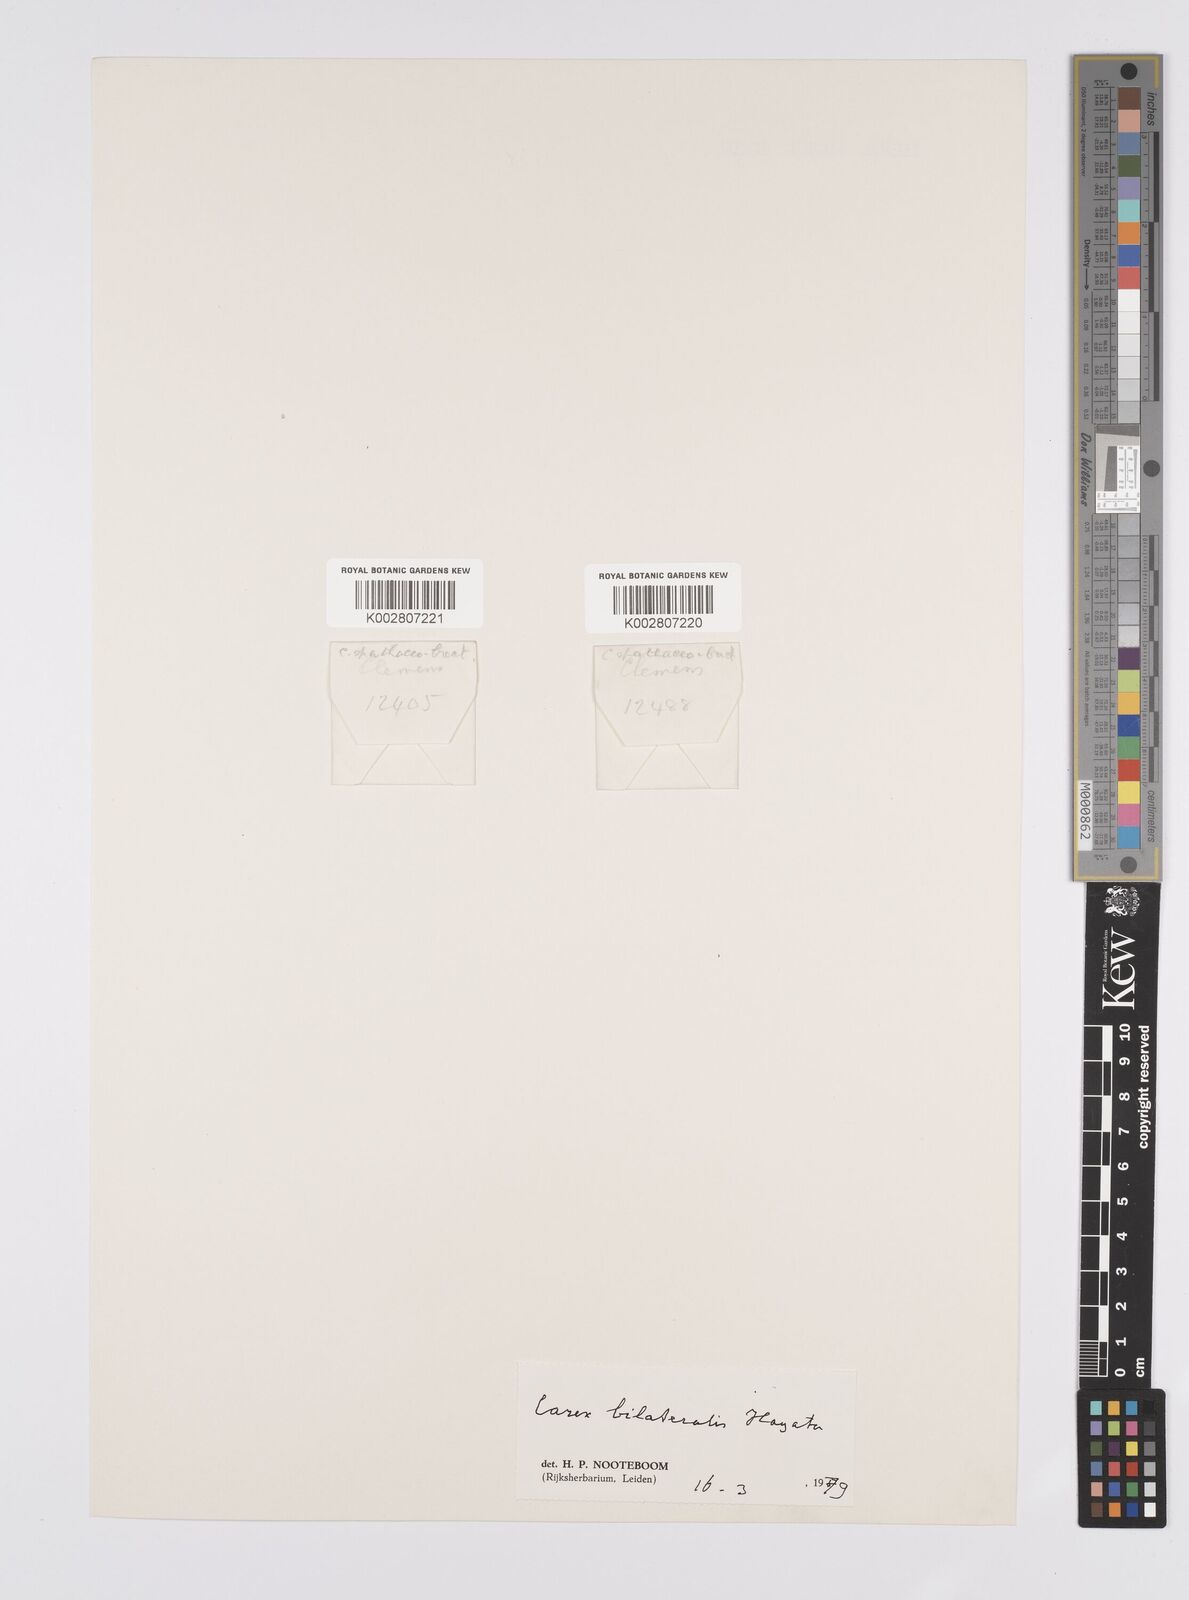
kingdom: Plantae
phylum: Tracheophyta
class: Liliopsida
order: Poales
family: Cyperaceae
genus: Carex
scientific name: Carex bilateralis
